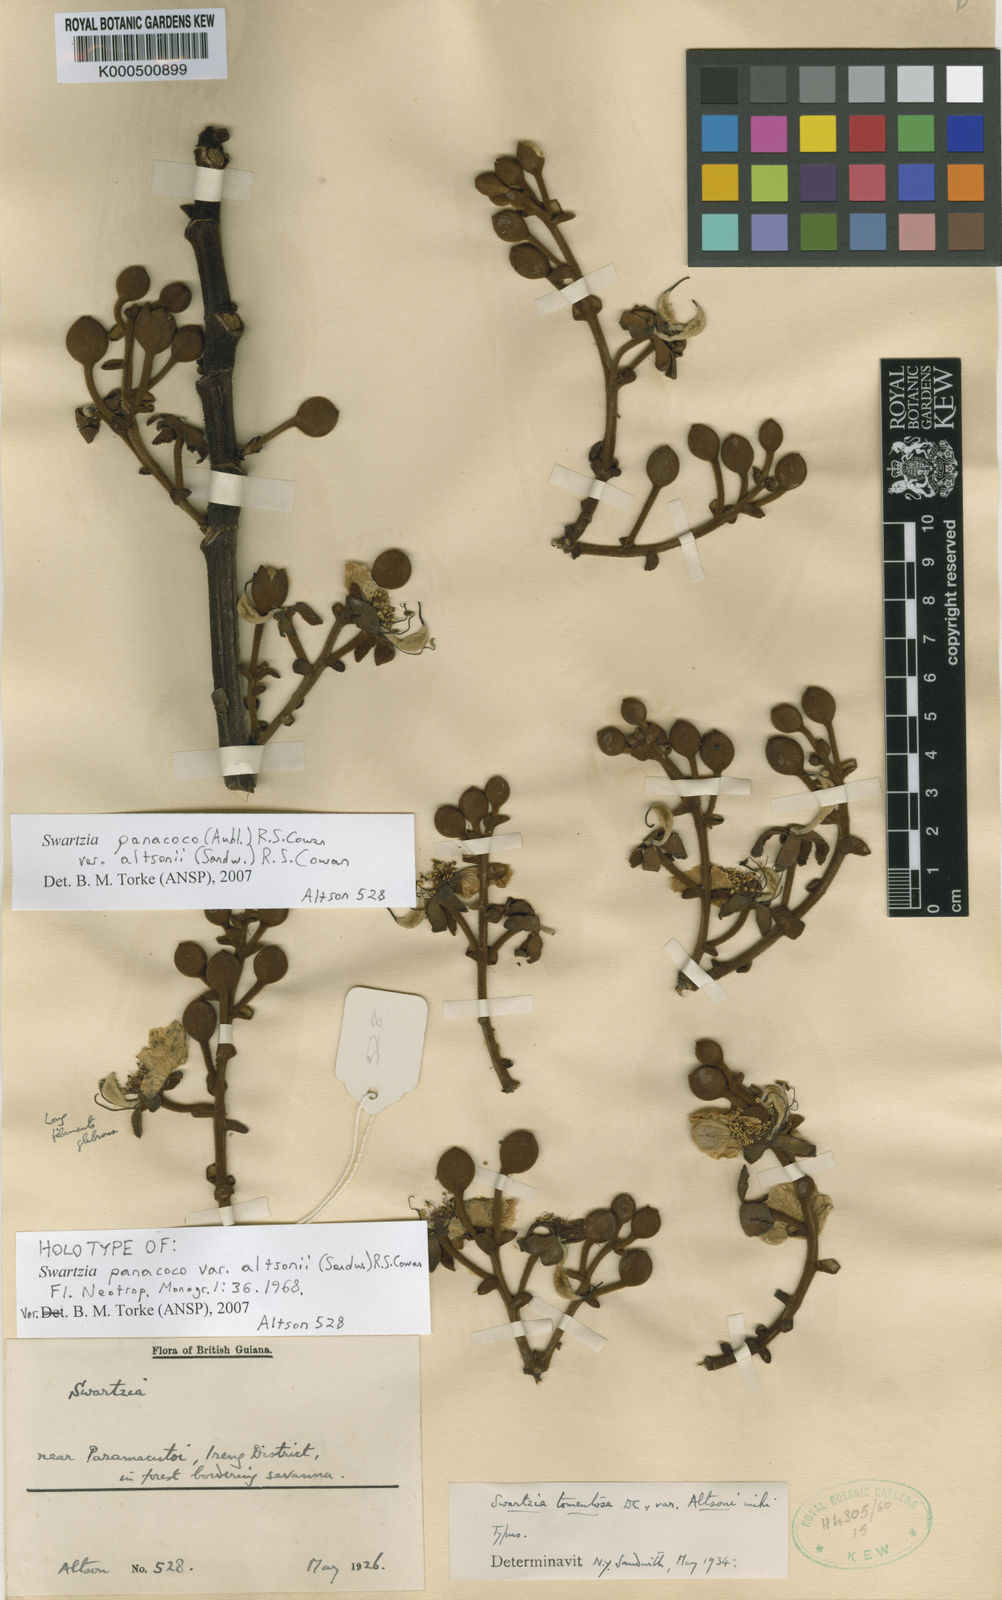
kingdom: Plantae
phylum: Tracheophyta
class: Magnoliopsida
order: Fabales
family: Fabaceae
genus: Swartzia
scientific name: Swartzia panacoco
